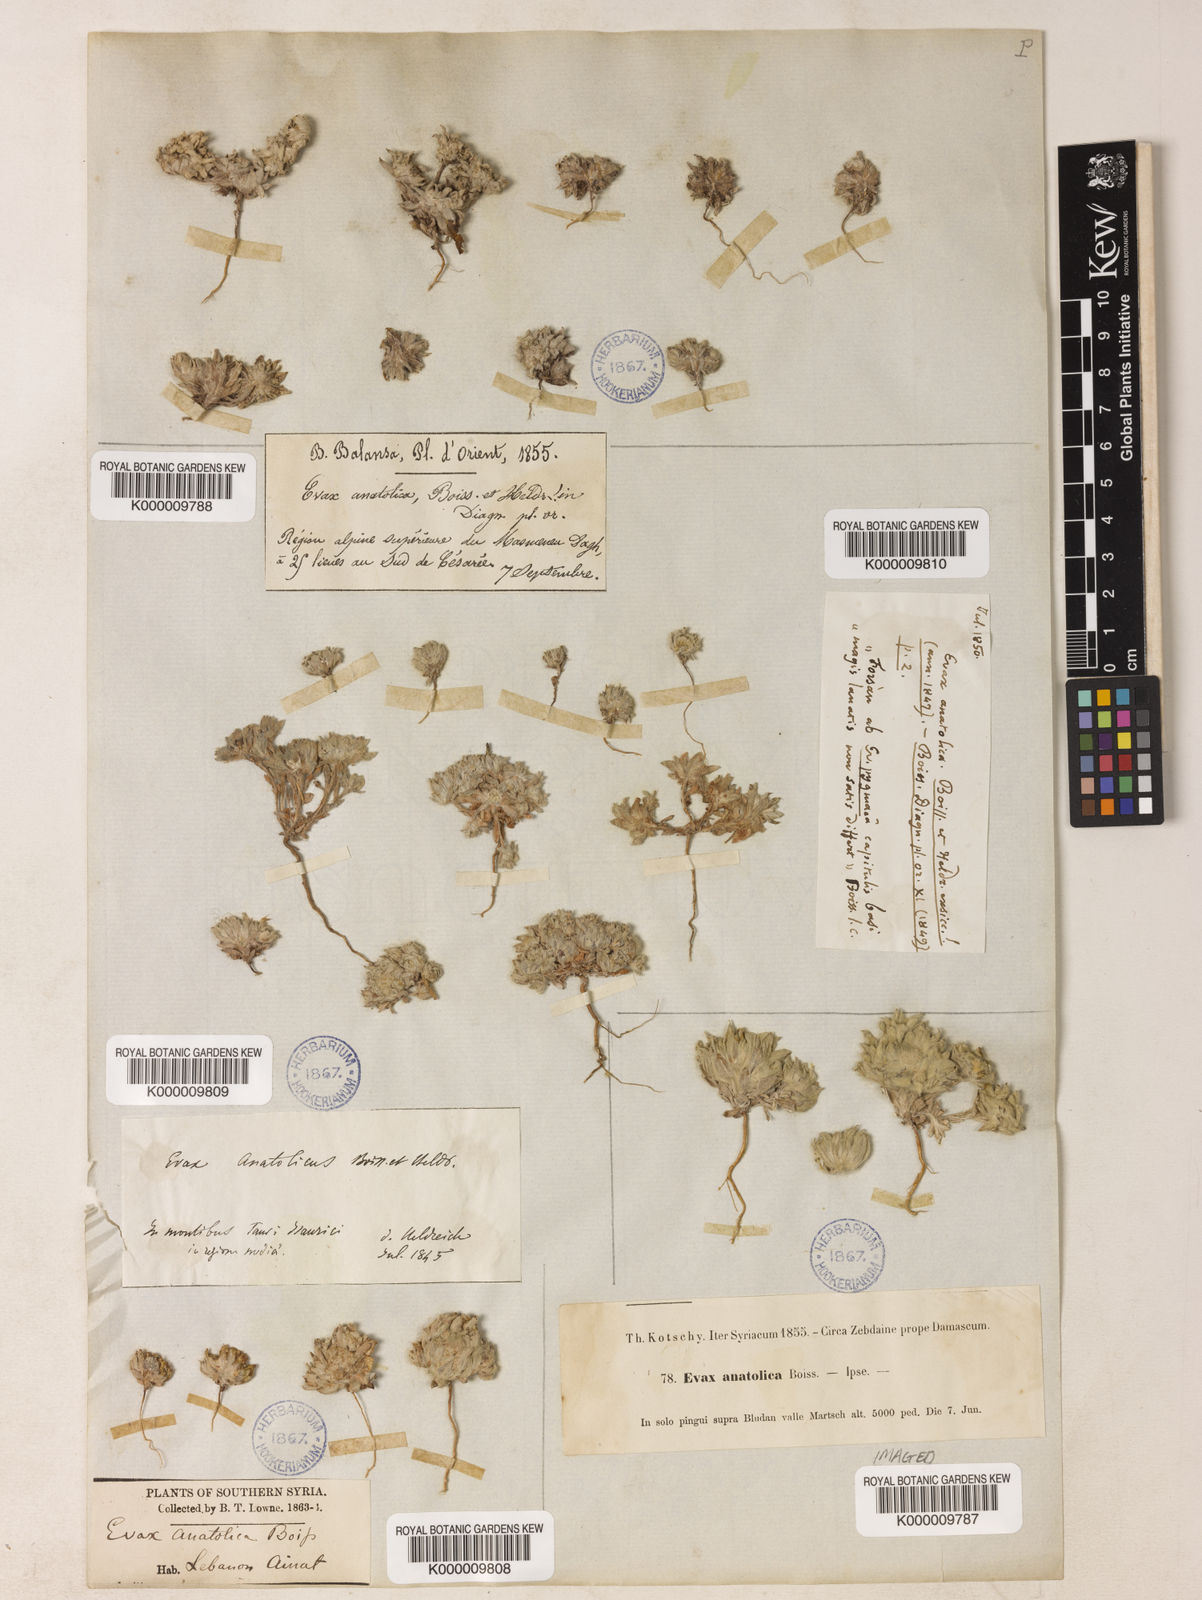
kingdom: Plantae
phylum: Tracheophyta
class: Magnoliopsida
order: Asterales
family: Asteraceae
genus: Filago
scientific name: Filago anatolica
